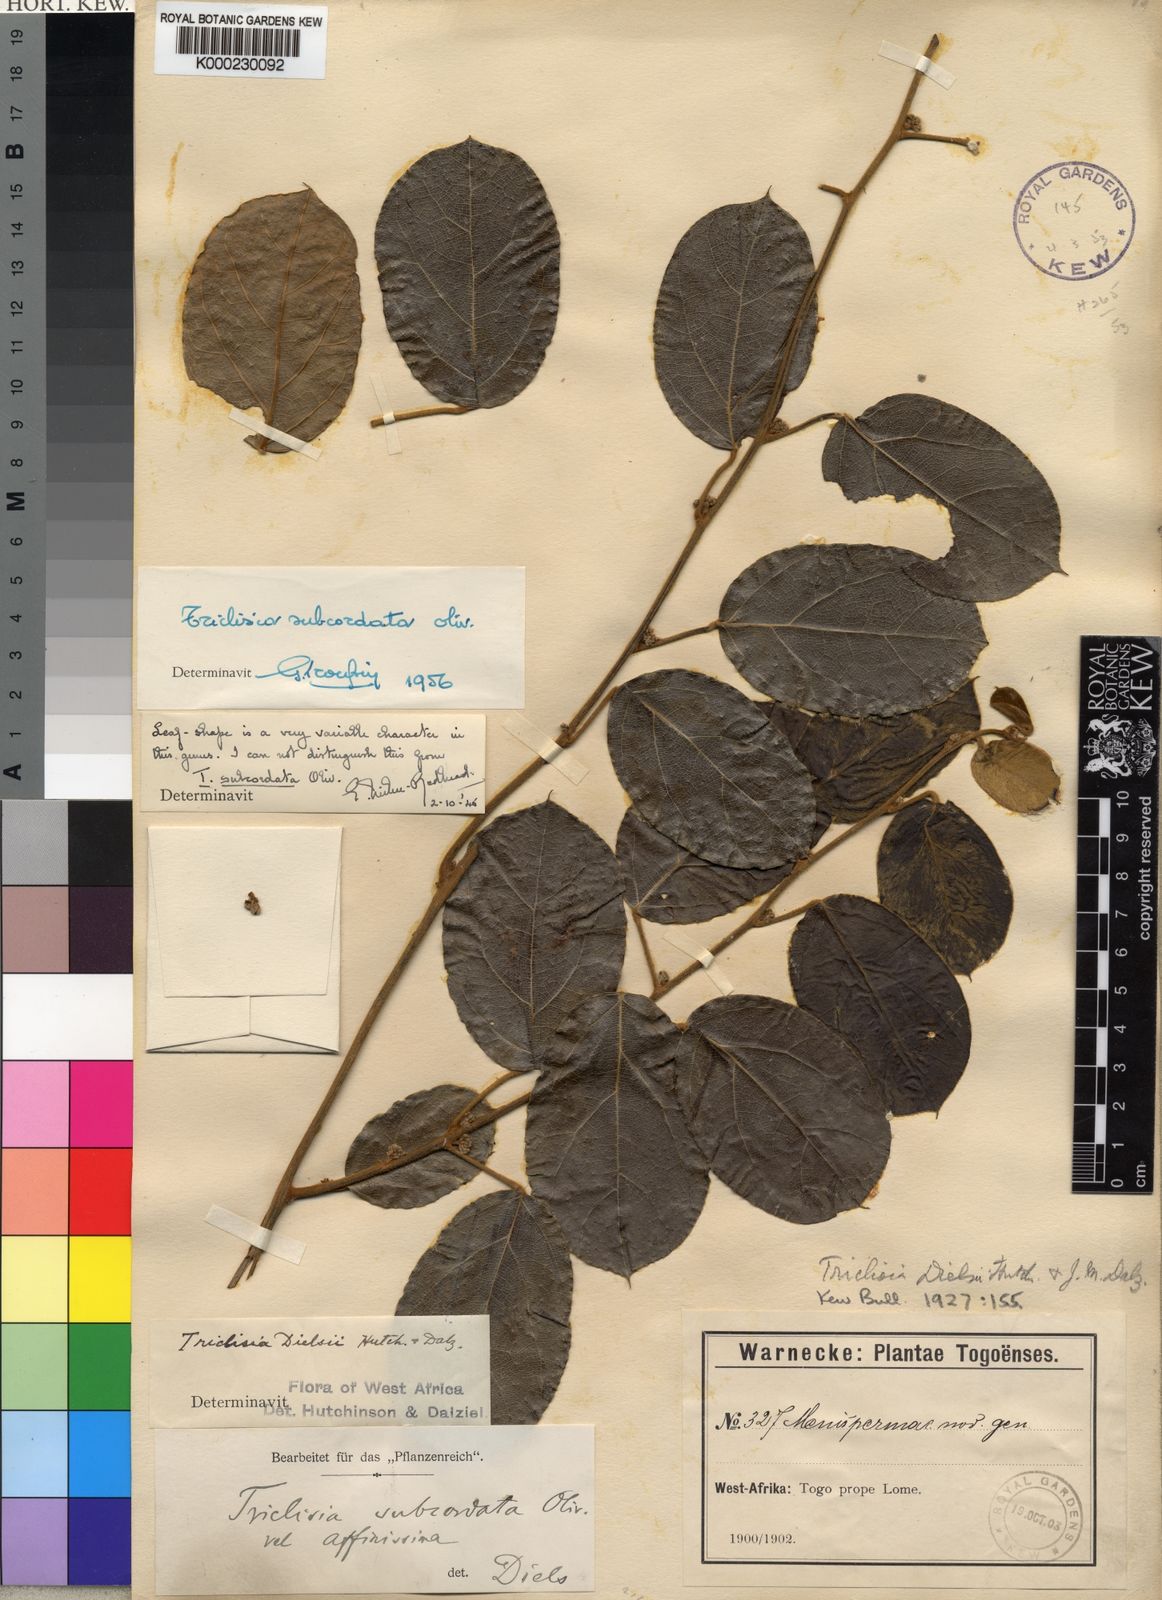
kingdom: Plantae
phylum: Tracheophyta
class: Magnoliopsida
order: Ranunculales
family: Menispermaceae
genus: Triclisia
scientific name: Triclisia subcordata
